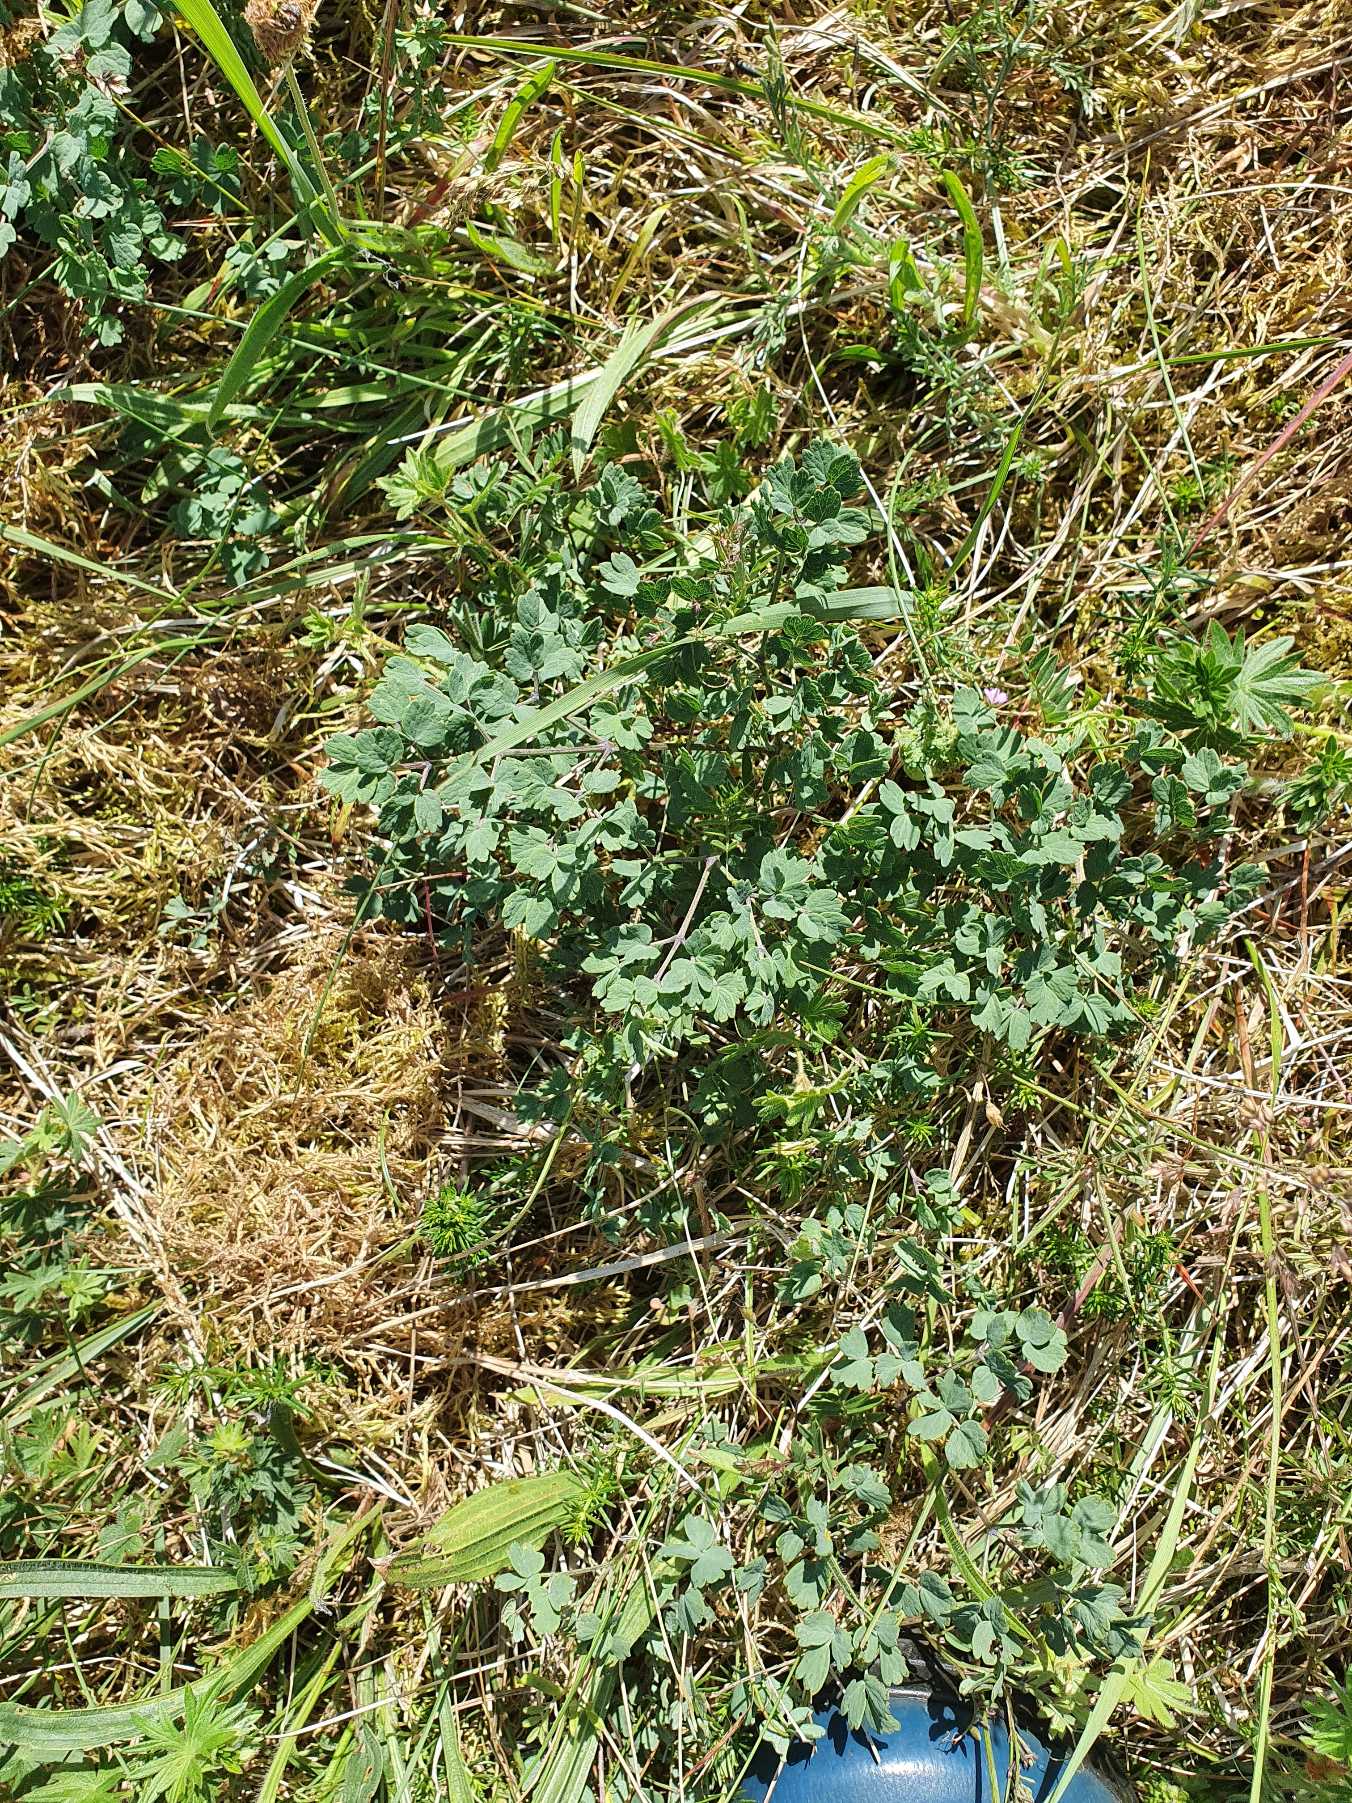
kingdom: Plantae
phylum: Tracheophyta
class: Magnoliopsida
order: Ranunculales
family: Ranunculaceae
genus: Thalictrum
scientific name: Thalictrum minus
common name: Liden frøstjerne
